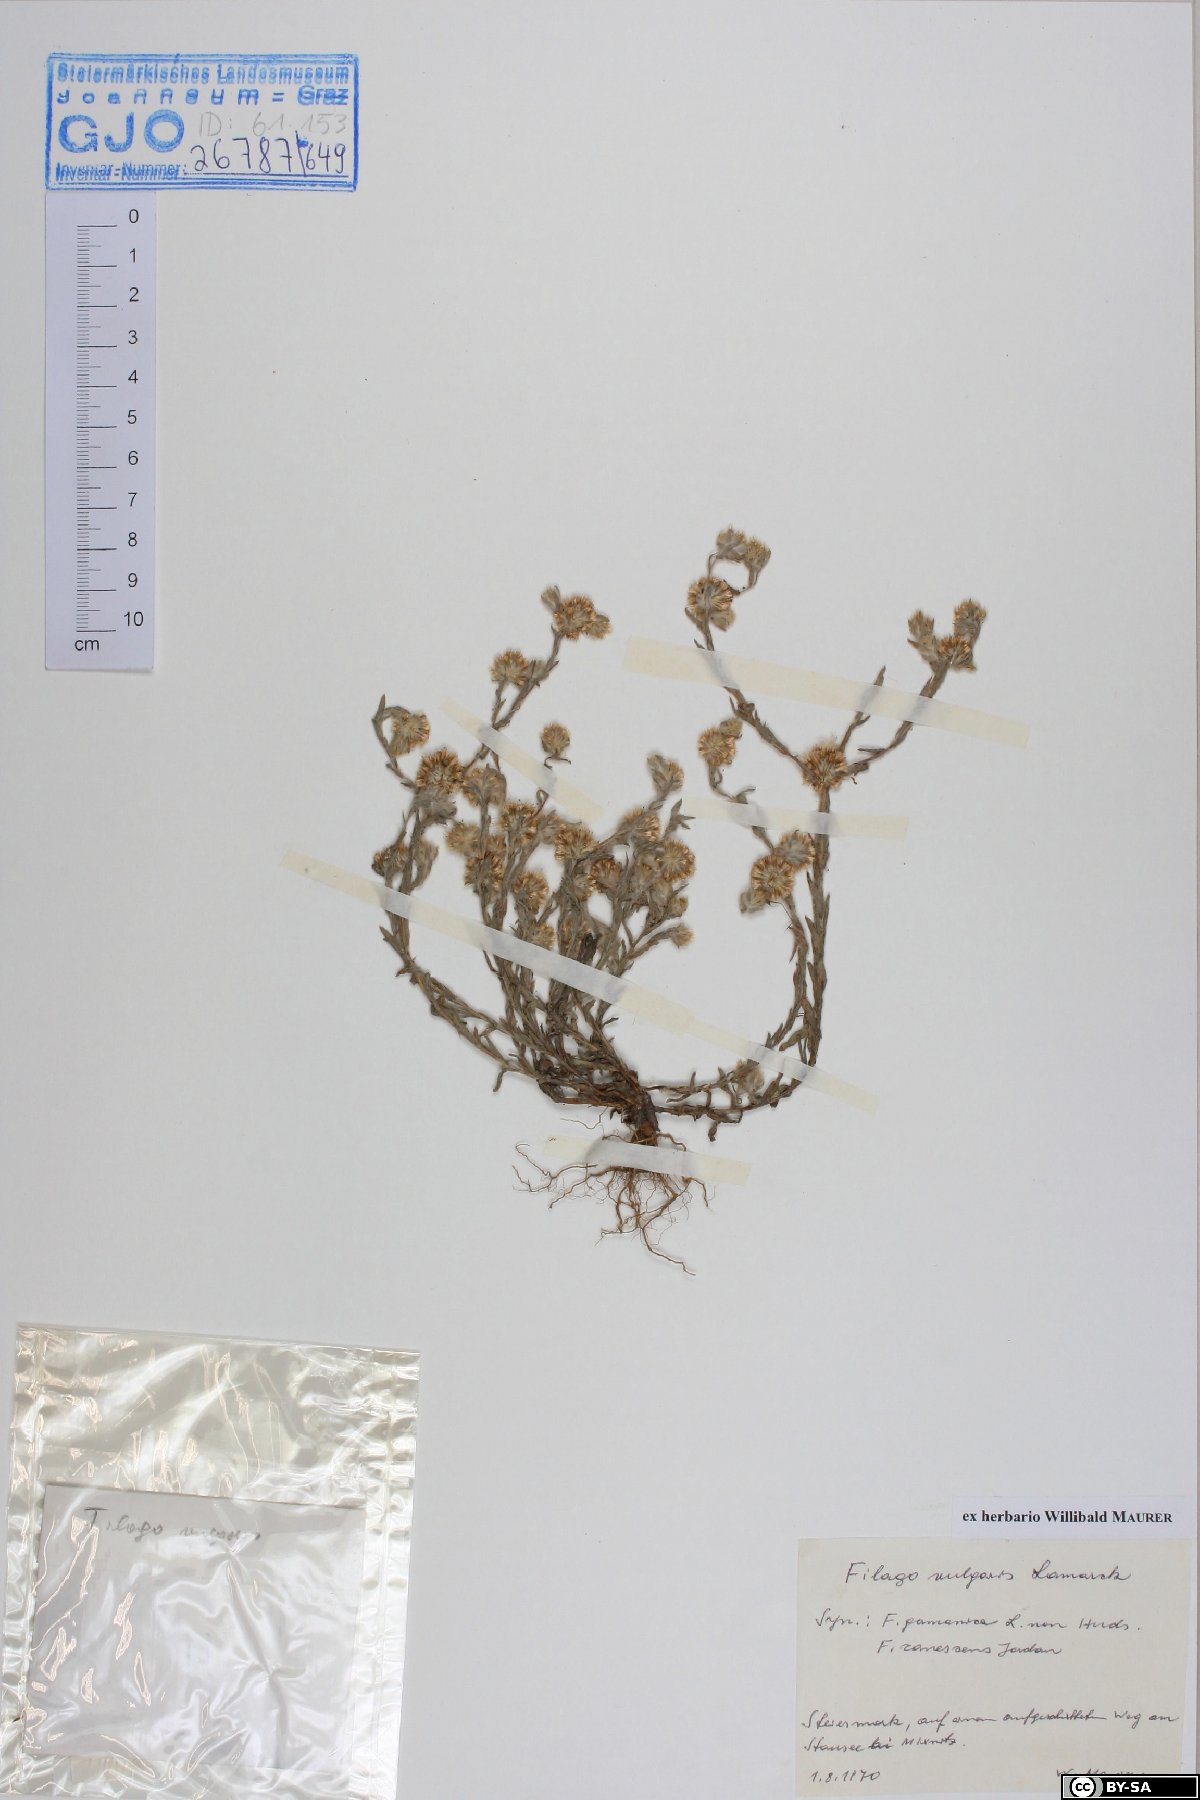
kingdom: Plantae
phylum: Tracheophyta
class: Magnoliopsida
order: Asterales
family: Asteraceae
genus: Filago
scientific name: Filago germanica
